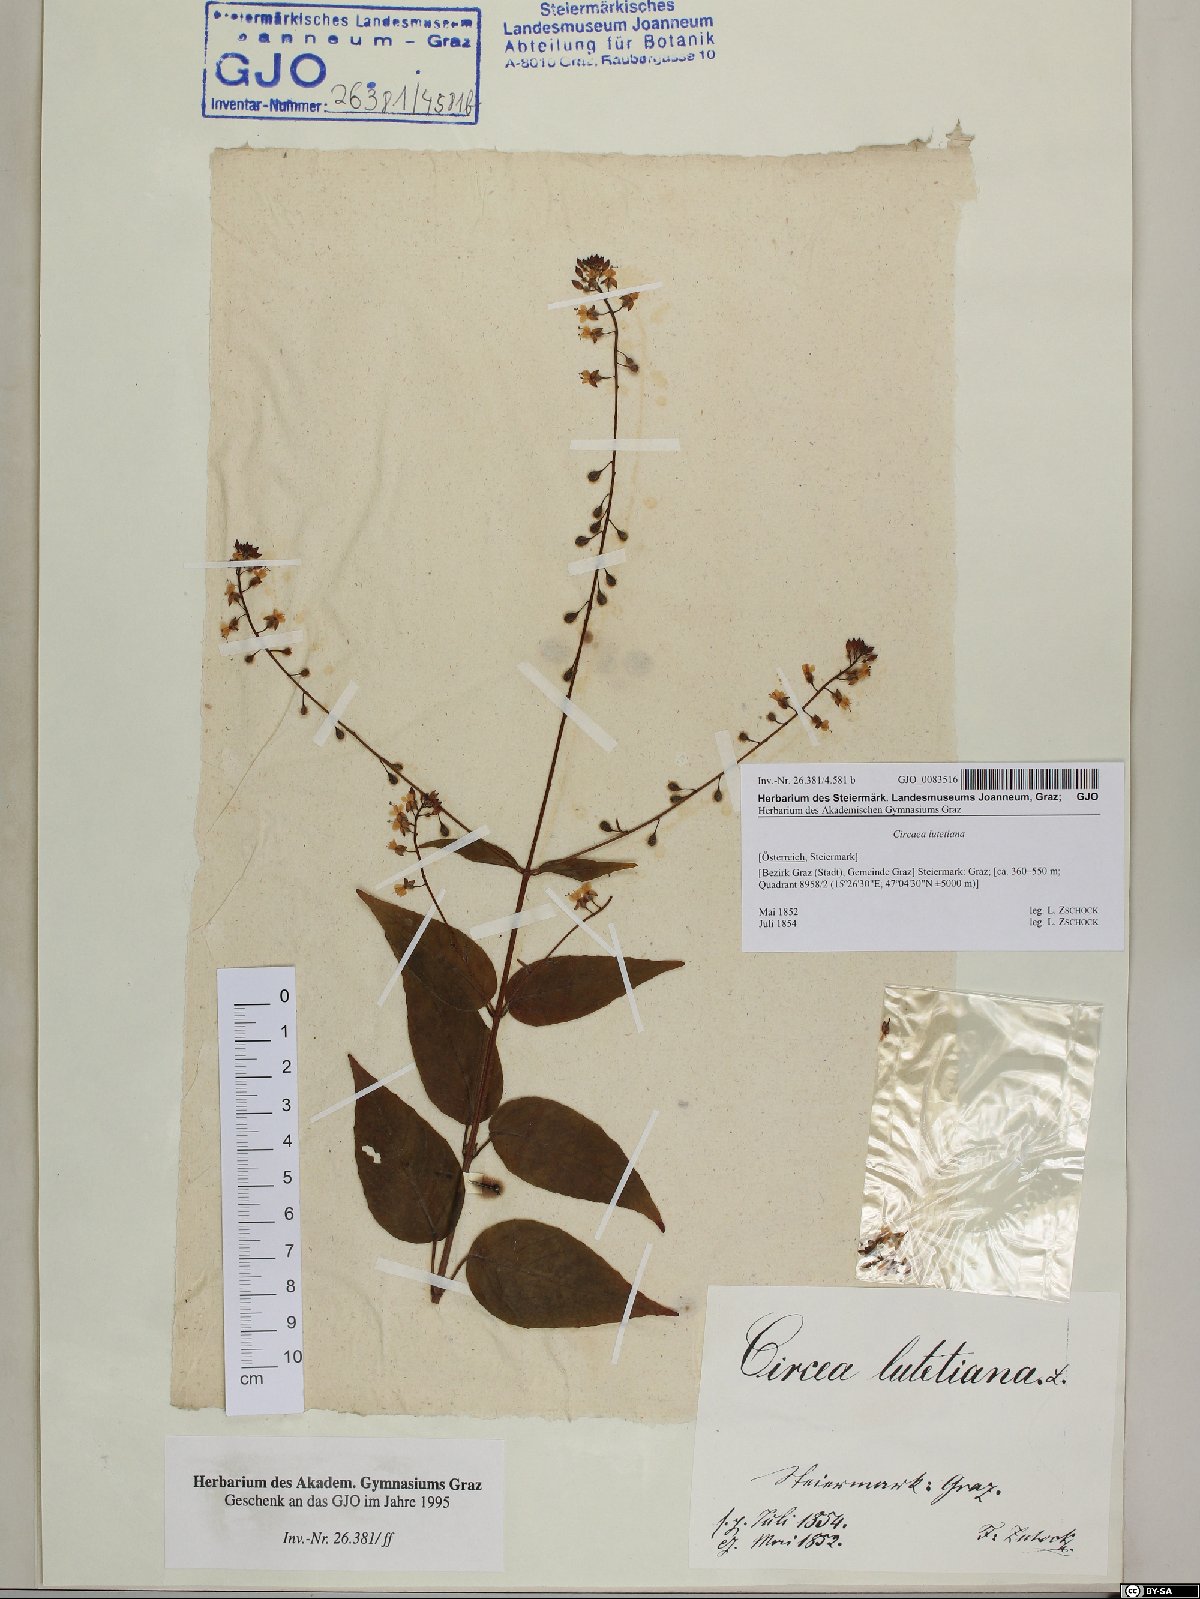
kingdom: Plantae
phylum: Tracheophyta
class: Magnoliopsida
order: Myrtales
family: Onagraceae
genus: Circaea
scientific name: Circaea lutetiana
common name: Enchanter's-nightshade
